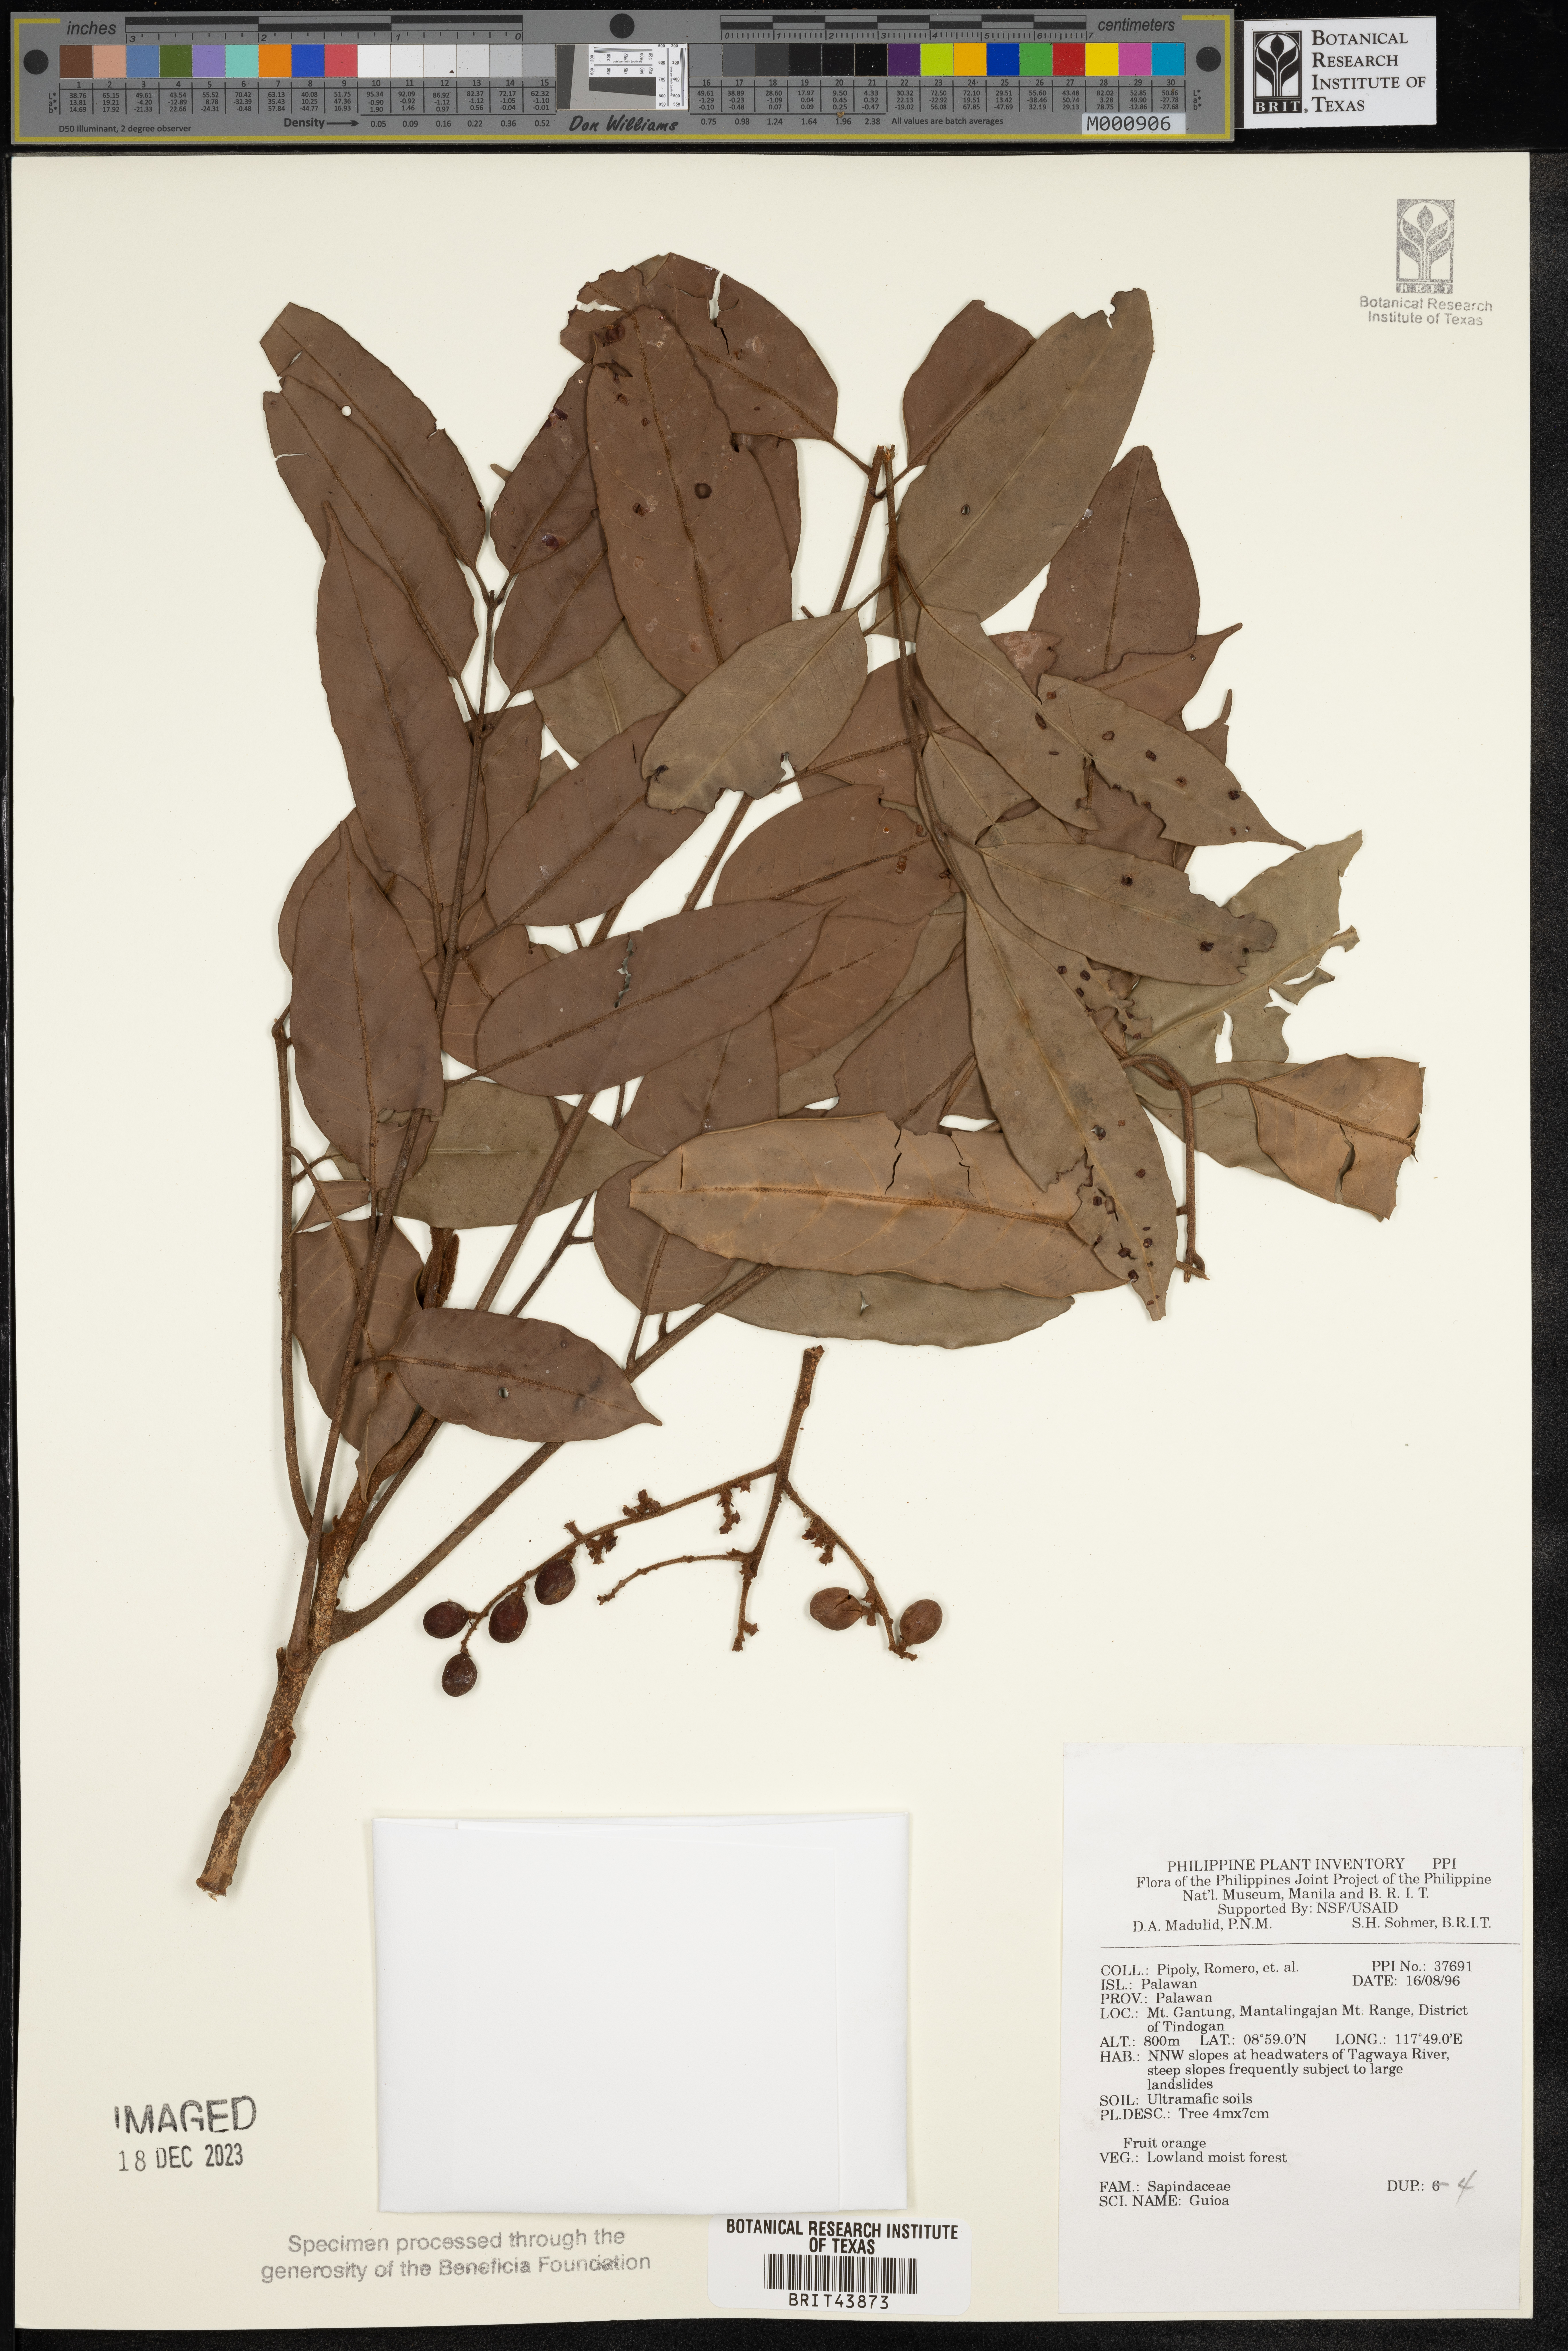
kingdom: Plantae
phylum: Tracheophyta
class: Magnoliopsida
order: Sapindales
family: Sapindaceae
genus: Guioa
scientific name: Guioa
